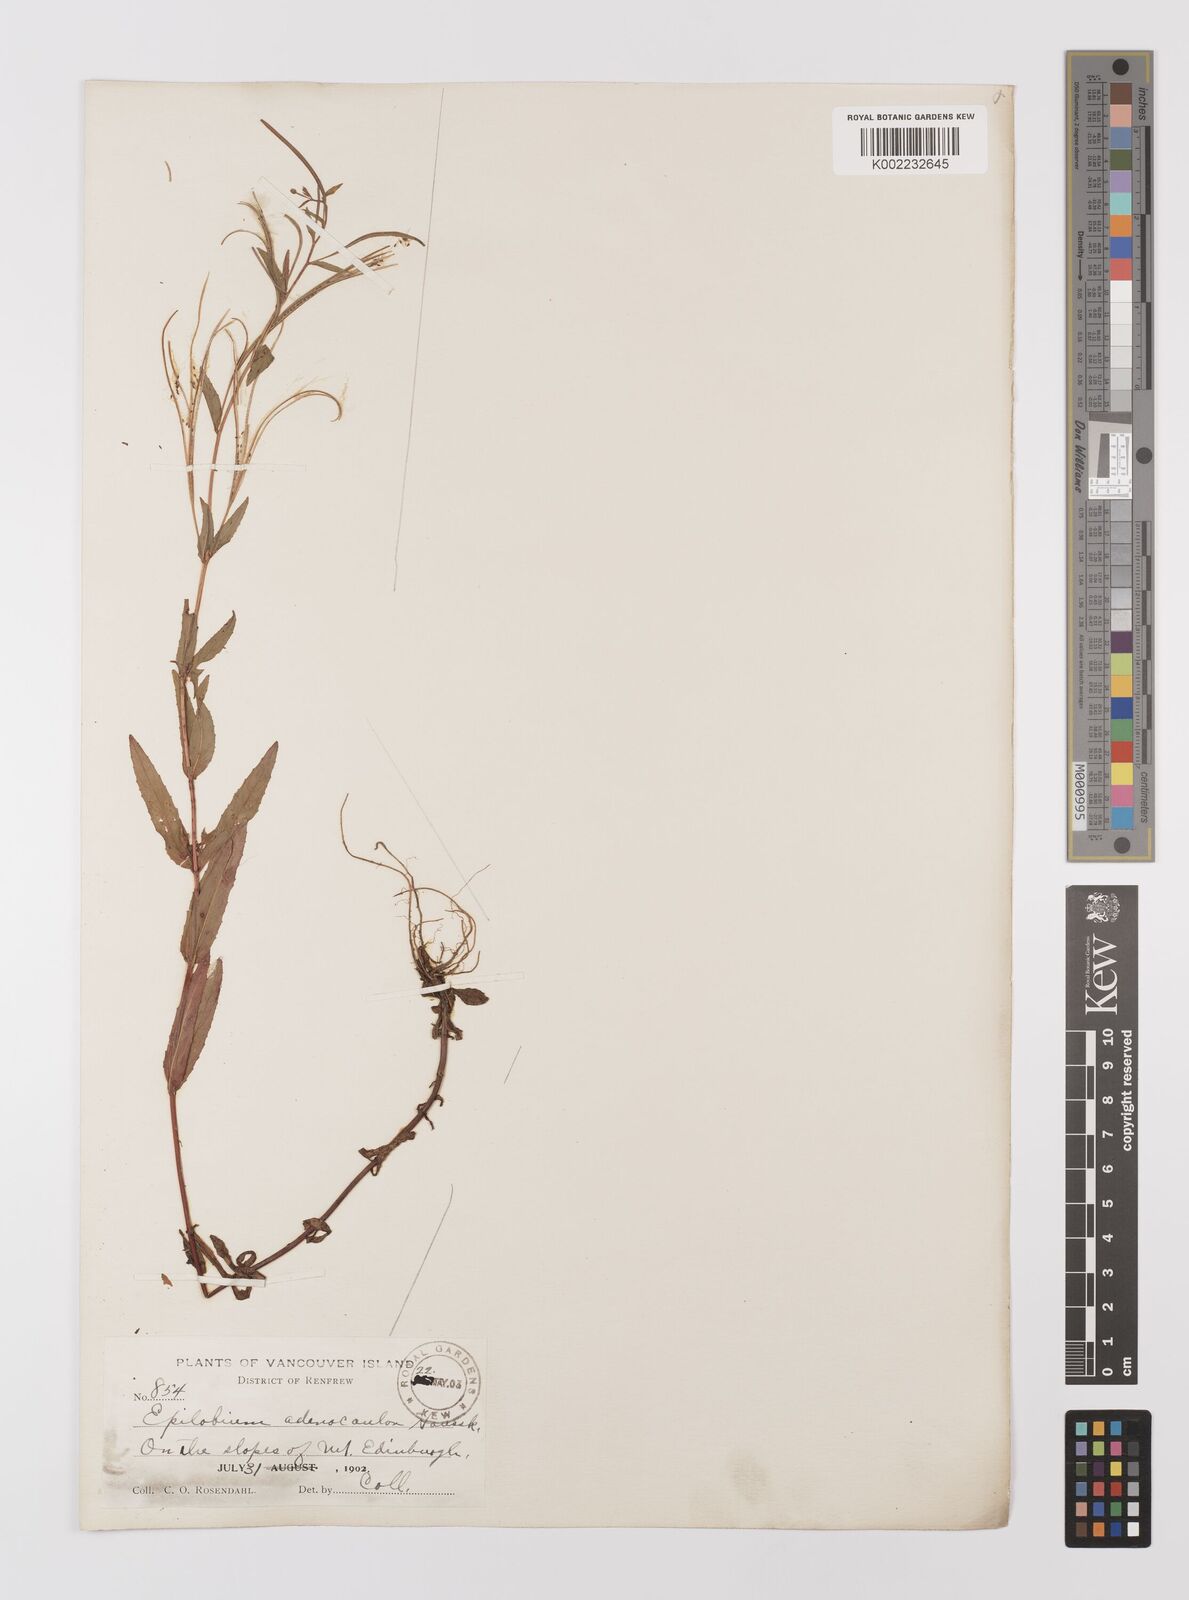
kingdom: Plantae
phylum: Tracheophyta
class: Magnoliopsida
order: Myrtales
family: Onagraceae
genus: Epilobium
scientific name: Epilobium ciliatum
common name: American willowherb
